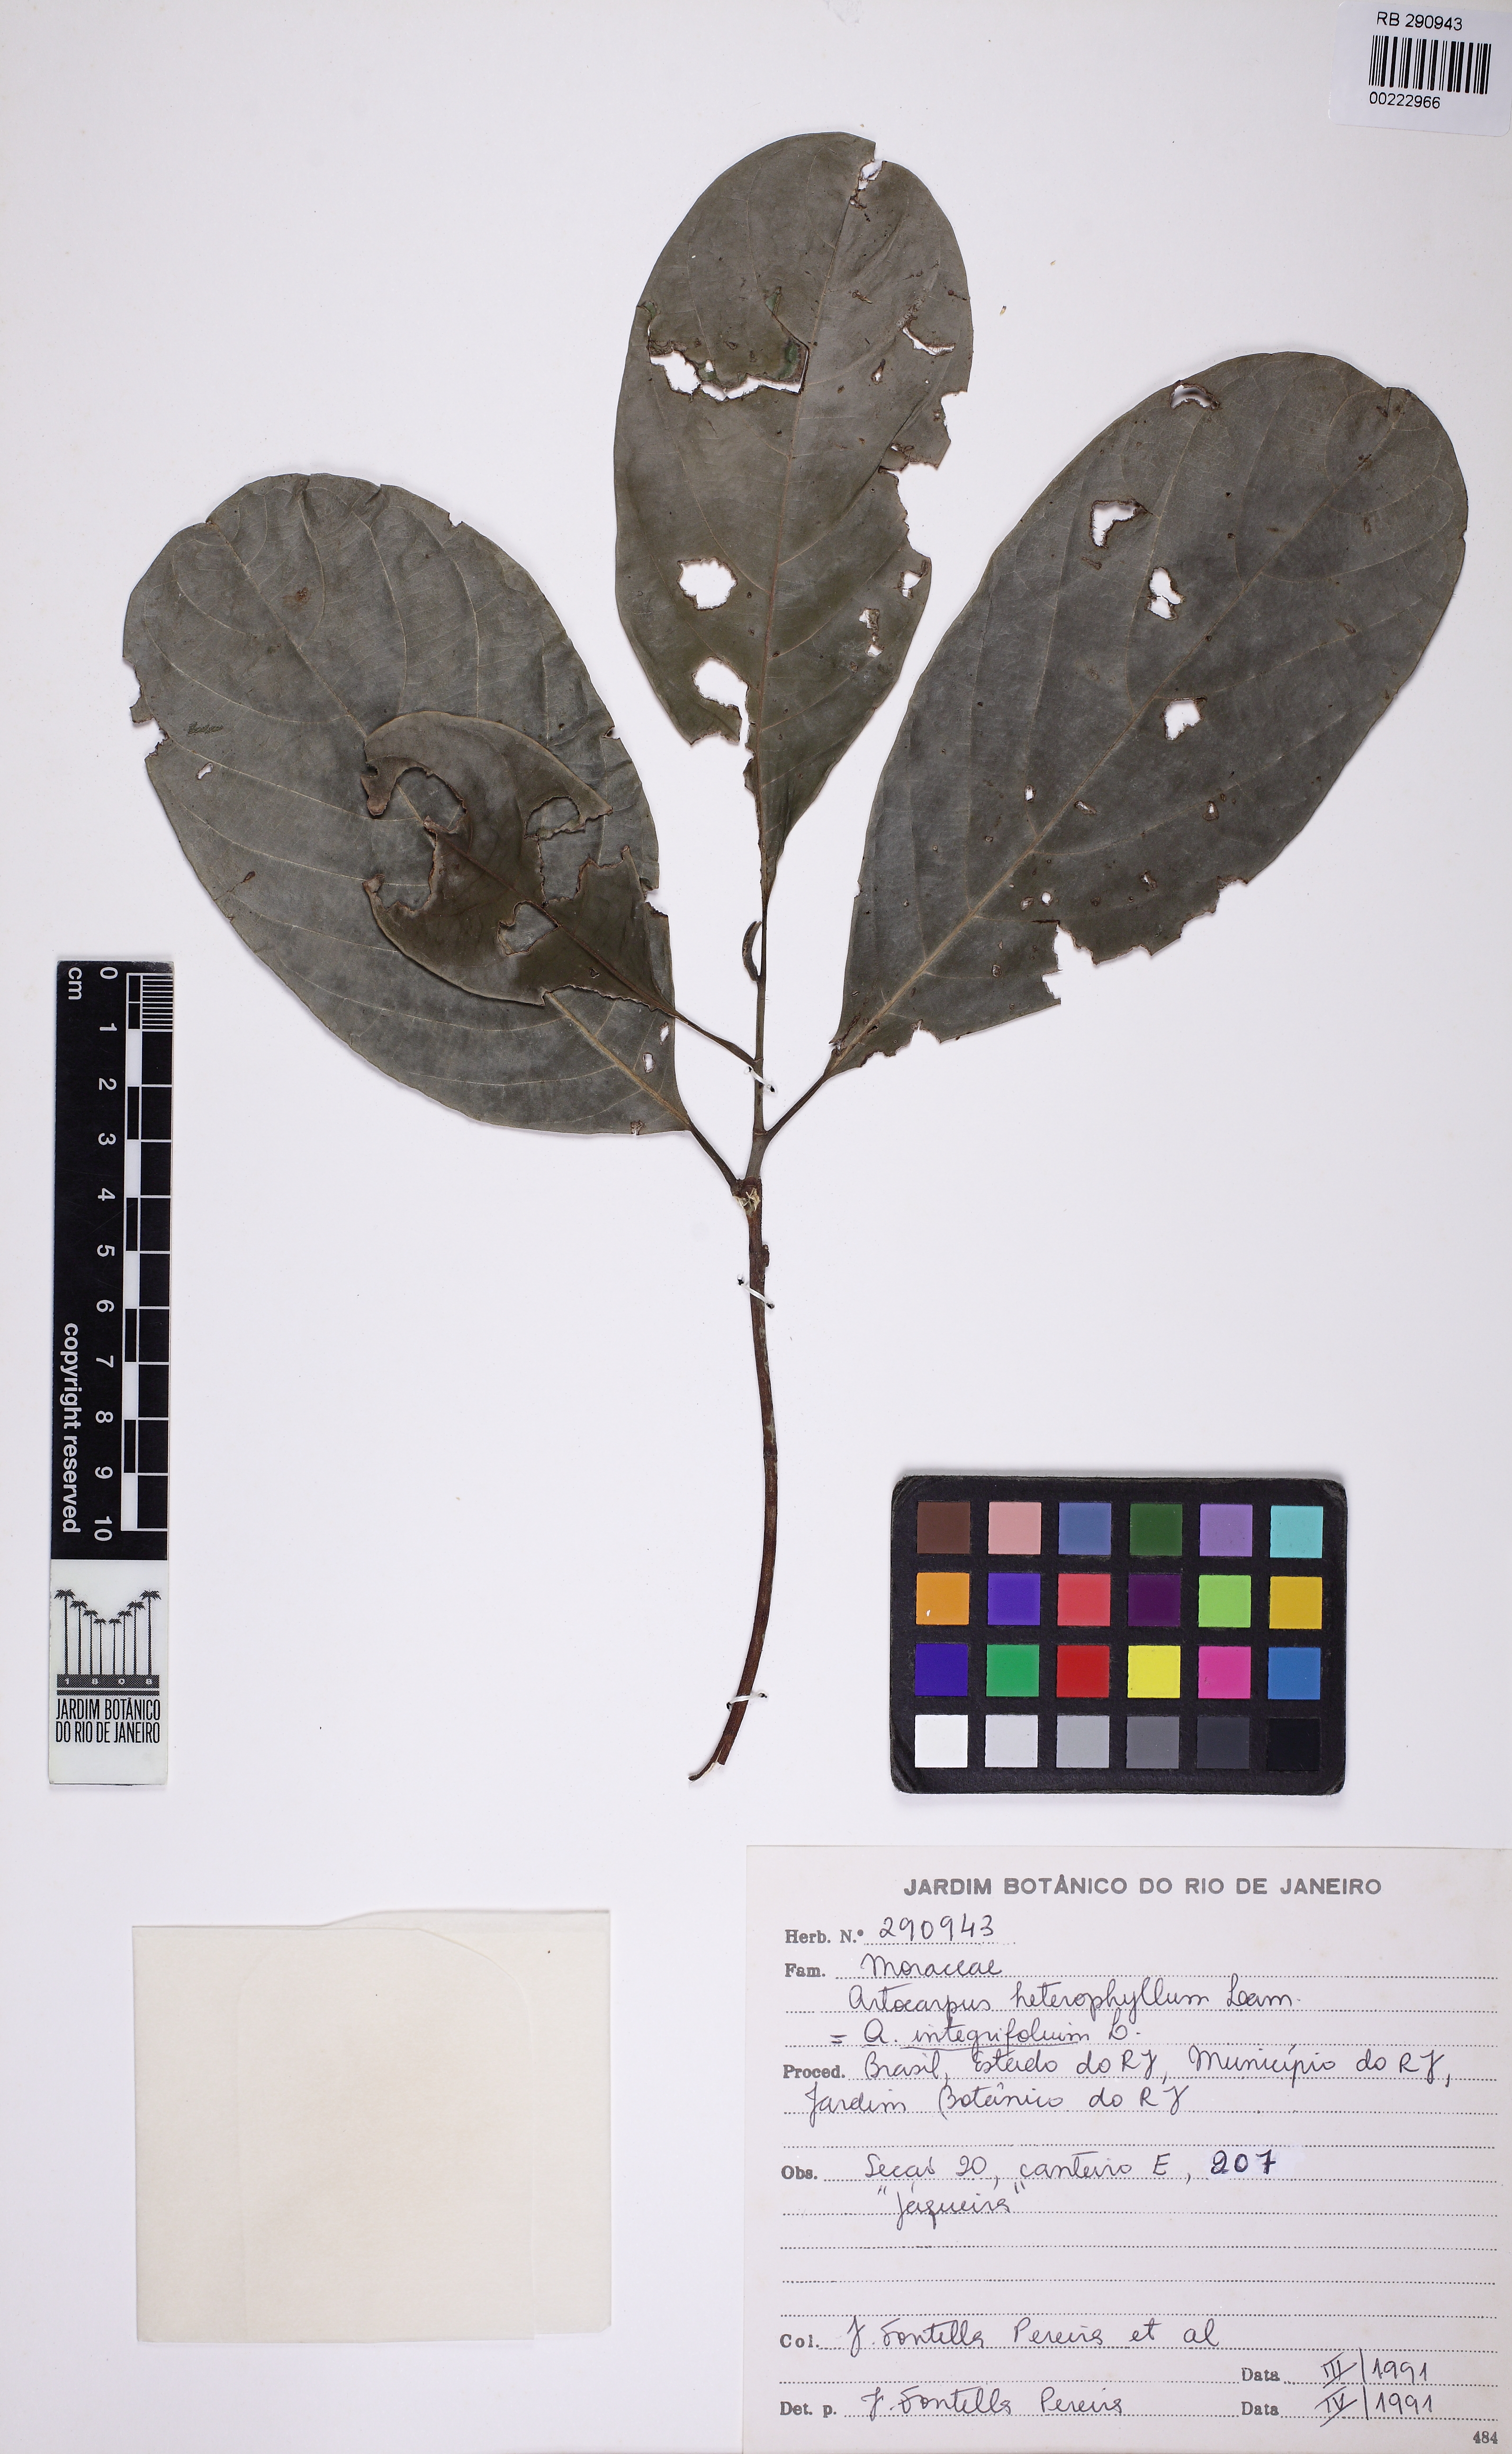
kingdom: Plantae
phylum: Tracheophyta
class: Magnoliopsida
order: Rosales
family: Moraceae
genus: Artocarpus
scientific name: Artocarpus heterophyllus
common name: Jackfruit
